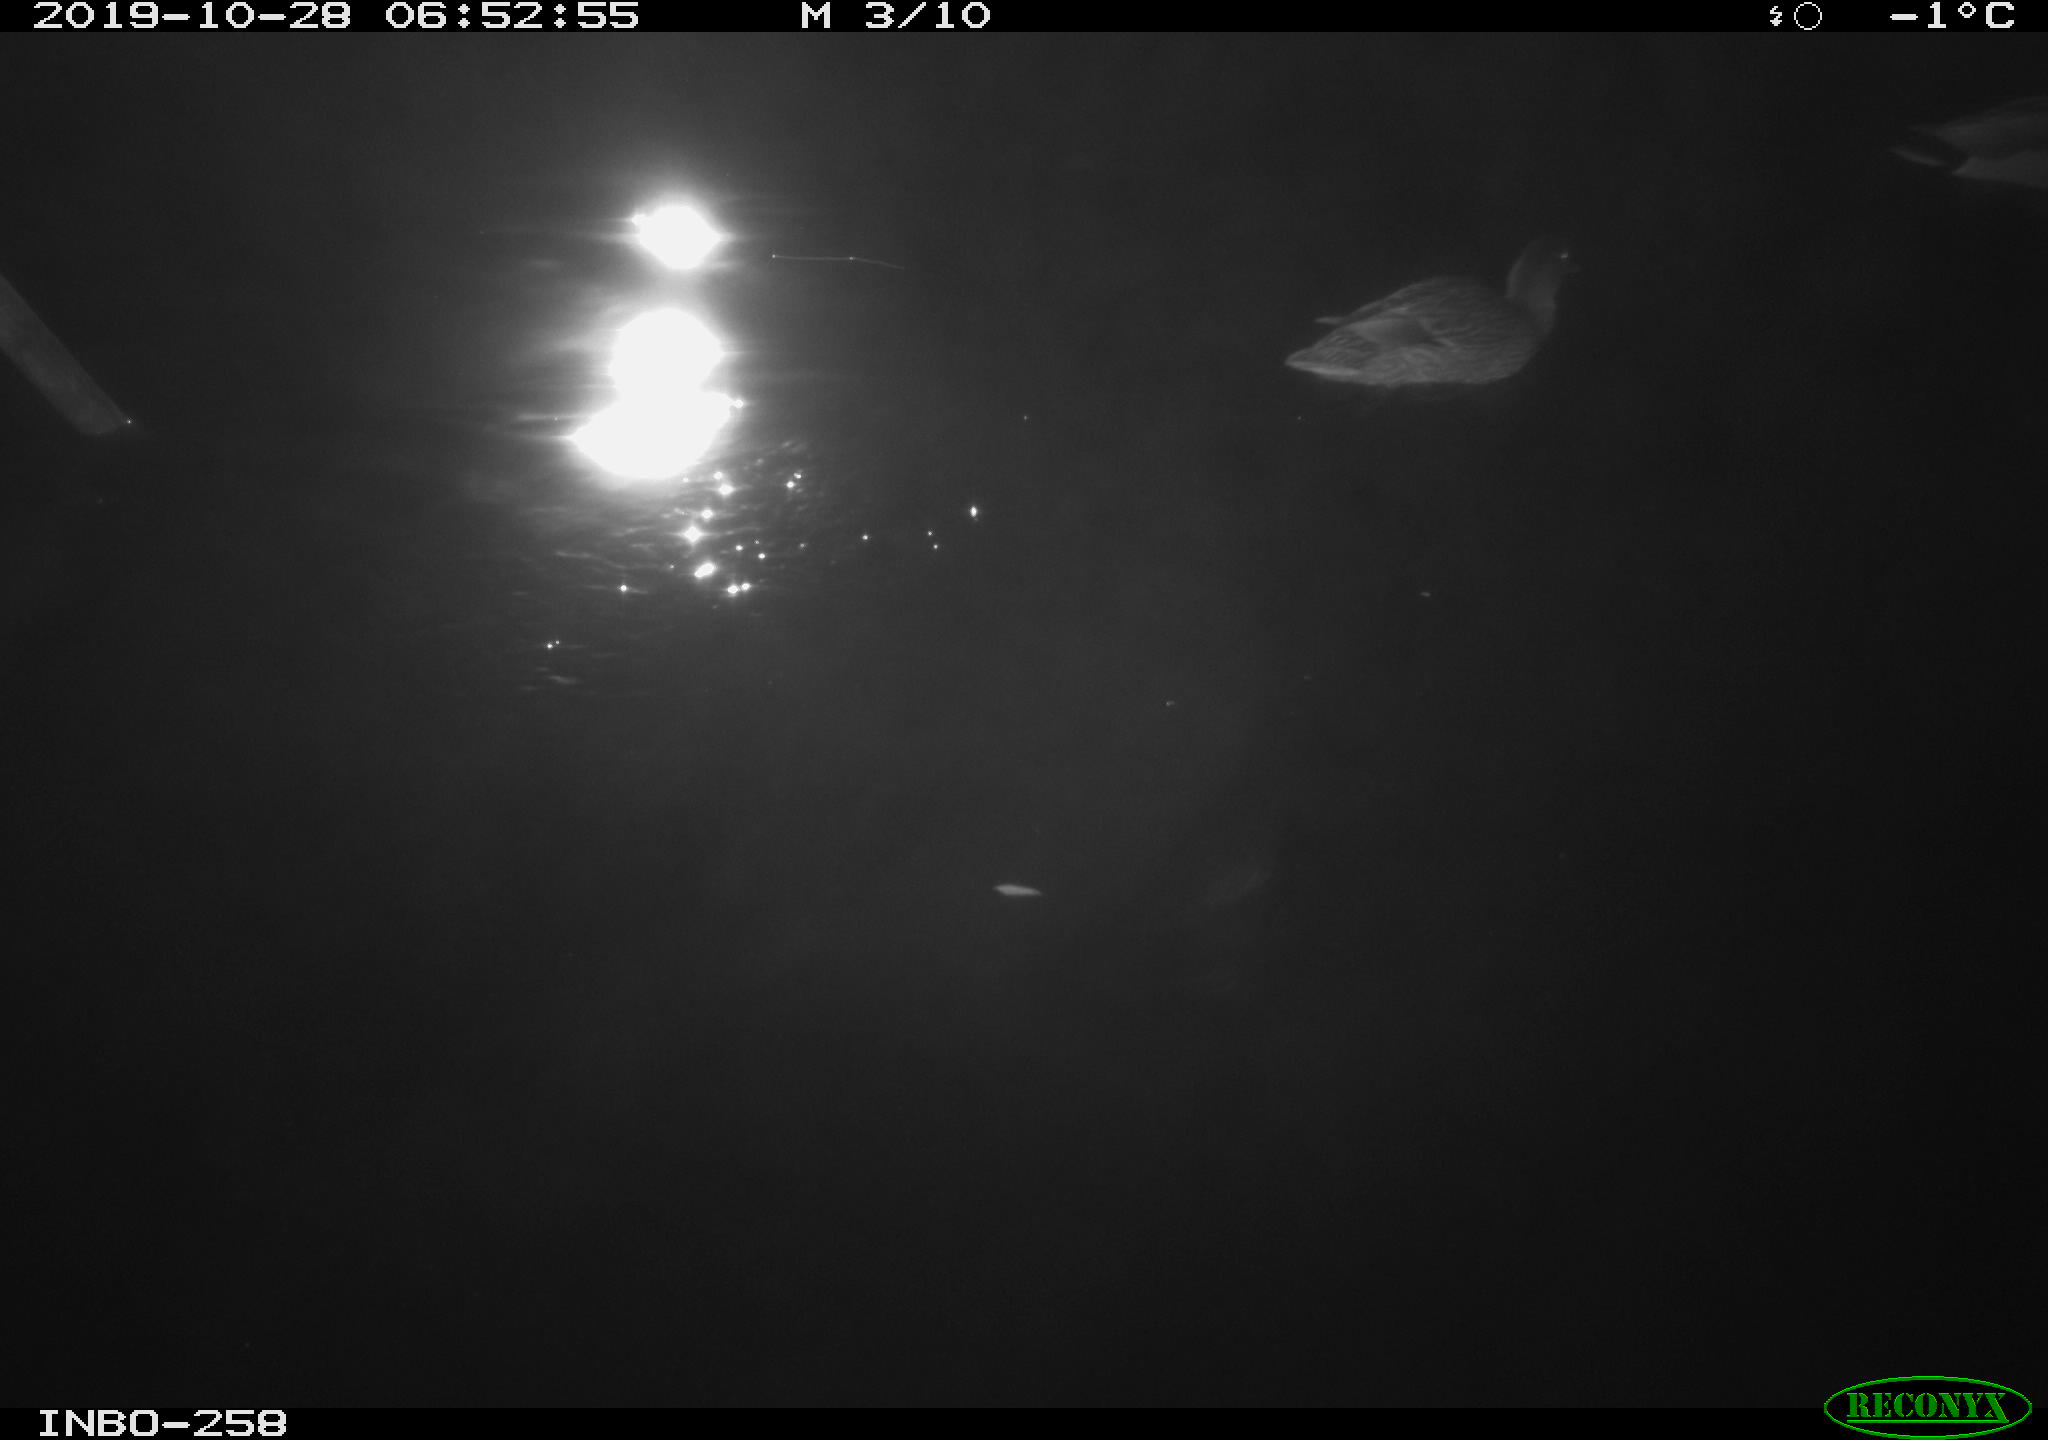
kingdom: Animalia
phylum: Chordata
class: Aves
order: Anseriformes
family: Anatidae
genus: Anas
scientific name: Anas platyrhynchos
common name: Mallard
